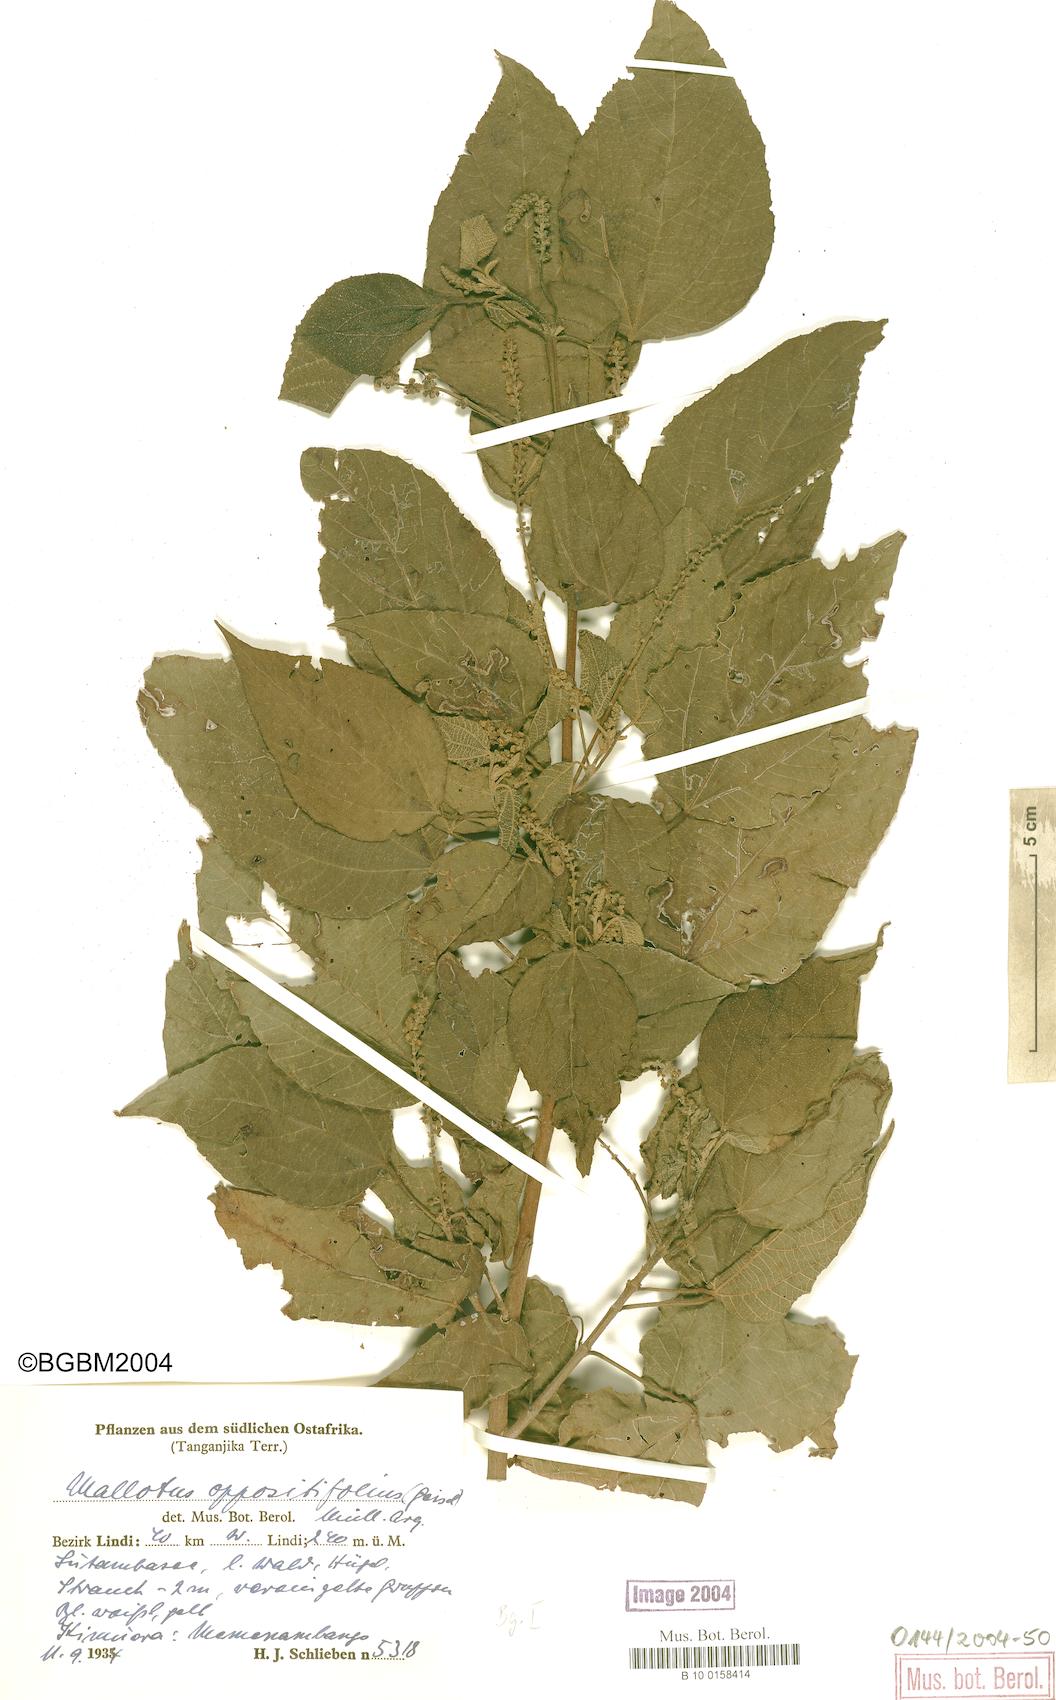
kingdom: Plantae
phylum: Tracheophyta
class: Magnoliopsida
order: Malpighiales
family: Euphorbiaceae
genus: Mallotus
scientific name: Mallotus oppositifolius
